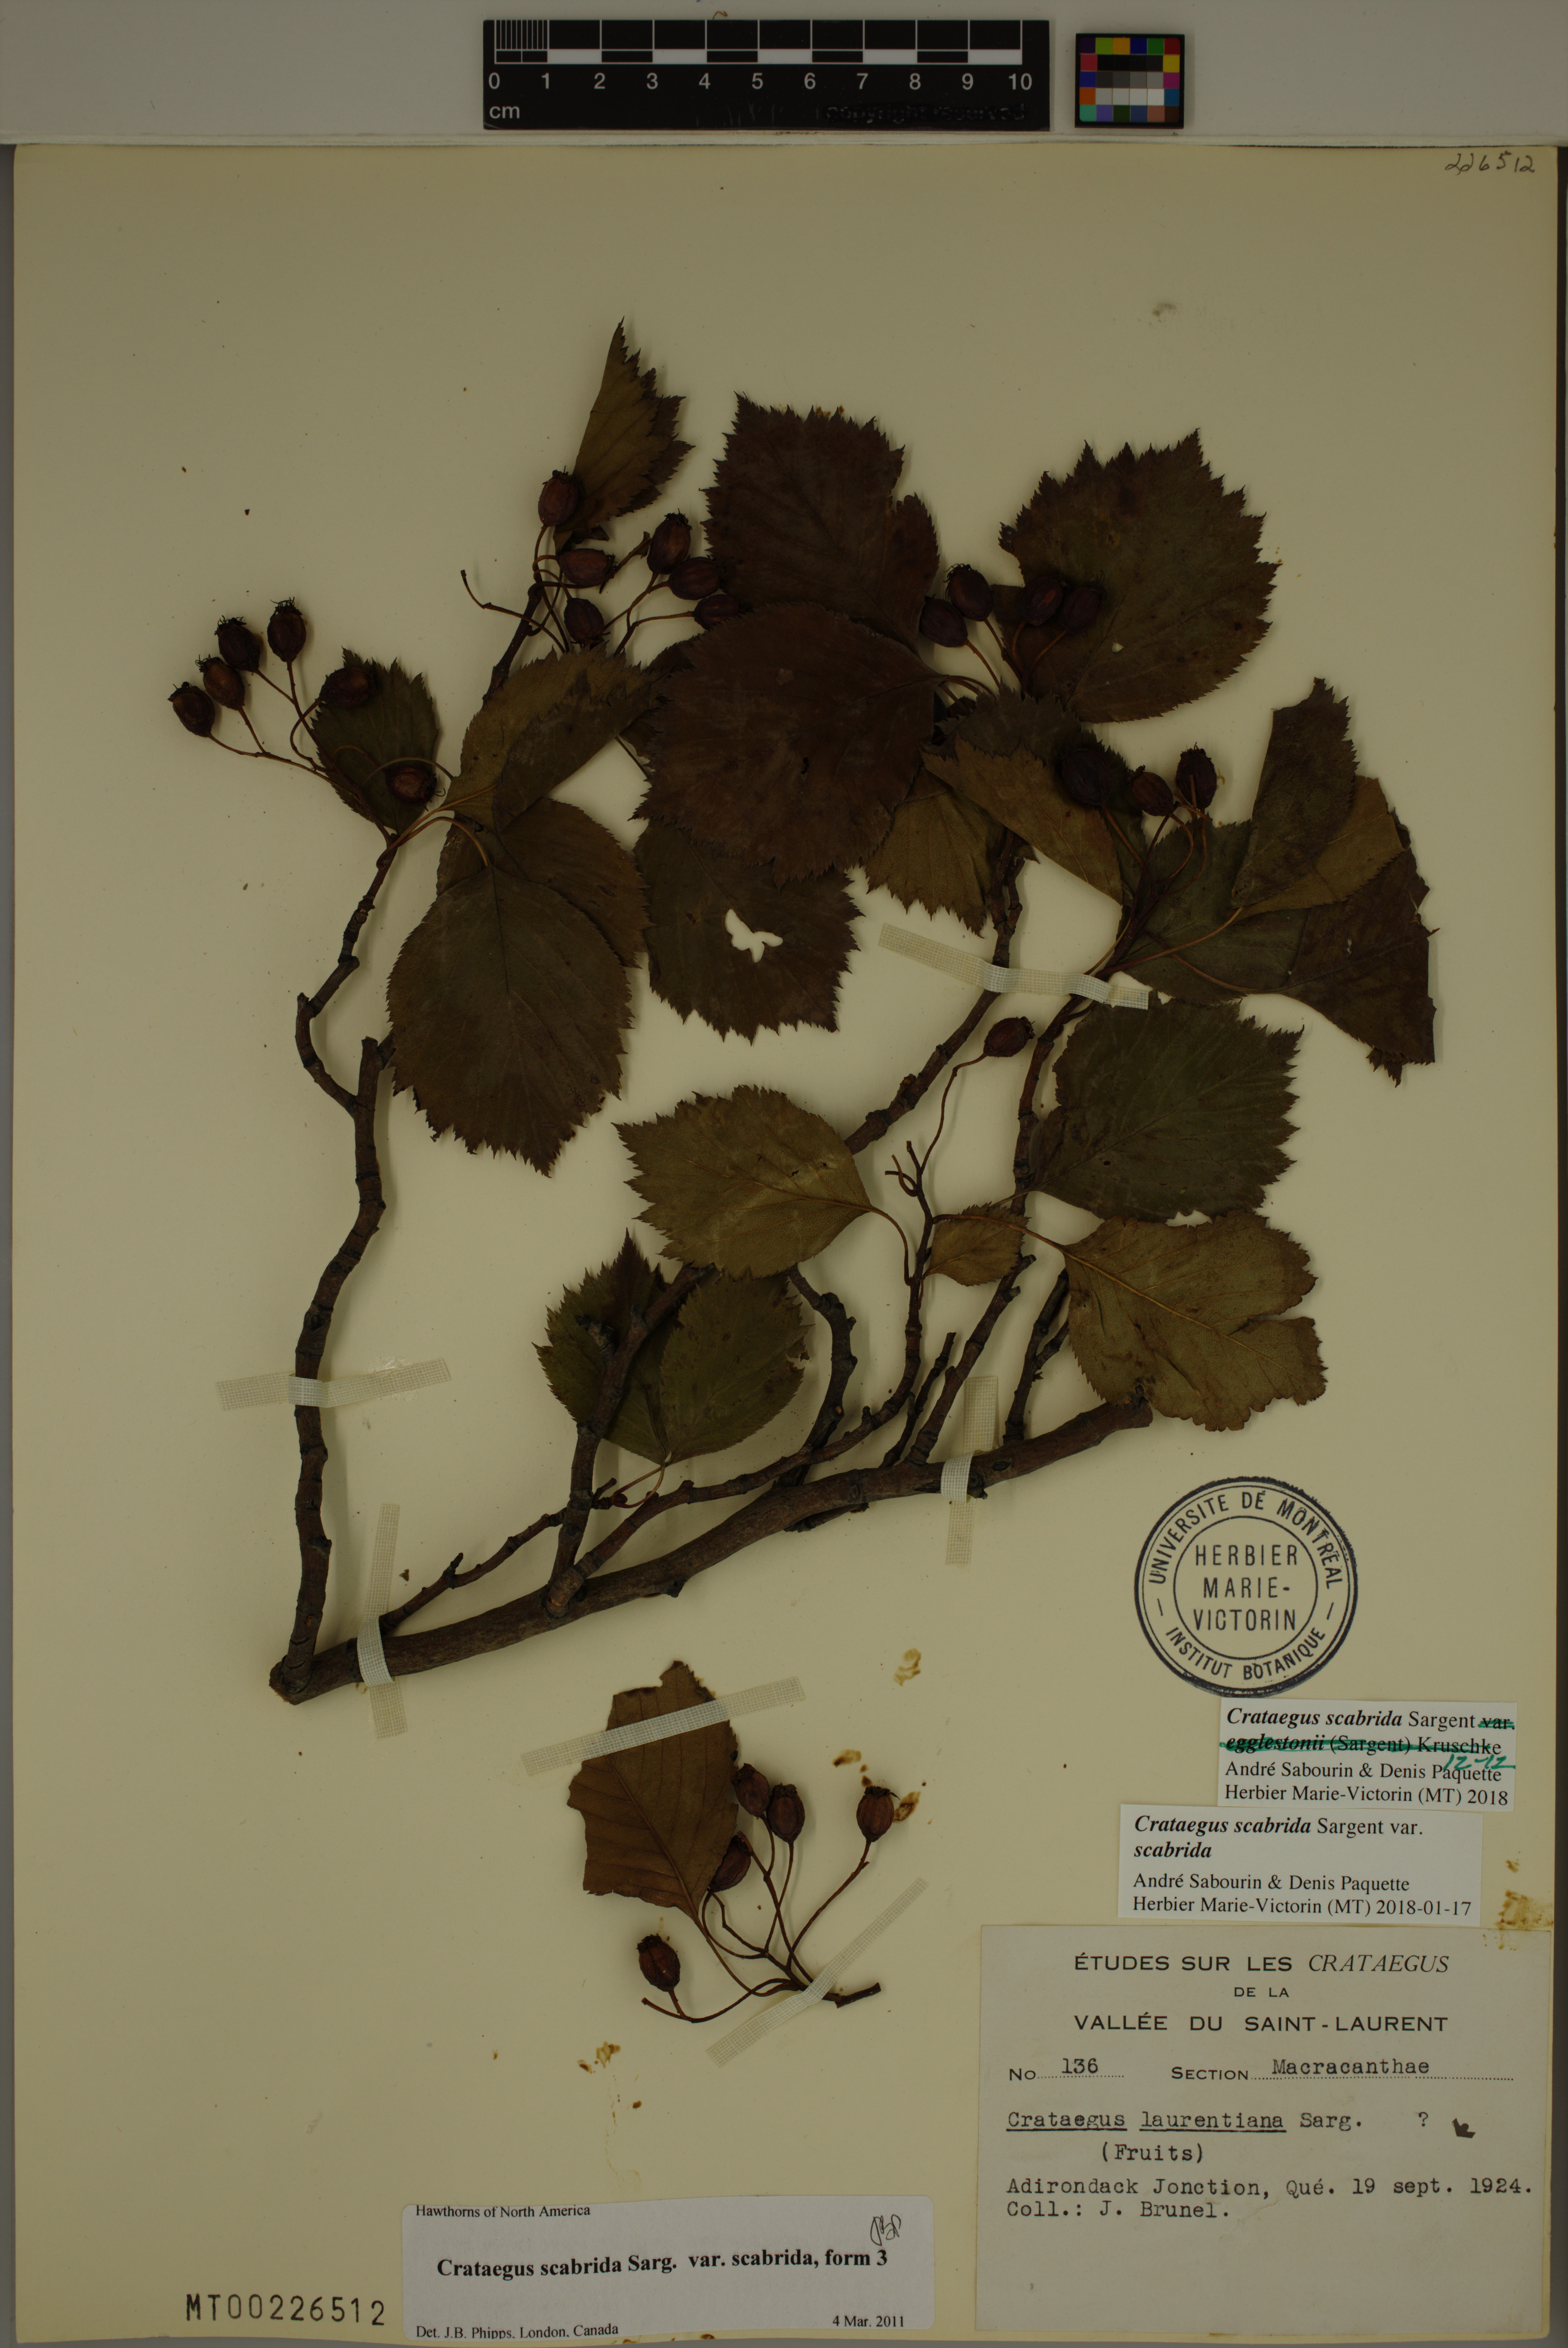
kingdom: Plantae
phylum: Tracheophyta
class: Magnoliopsida
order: Rosales
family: Rosaceae
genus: Crataegus
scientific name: Crataegus scabrida
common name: Rough hawthorn
